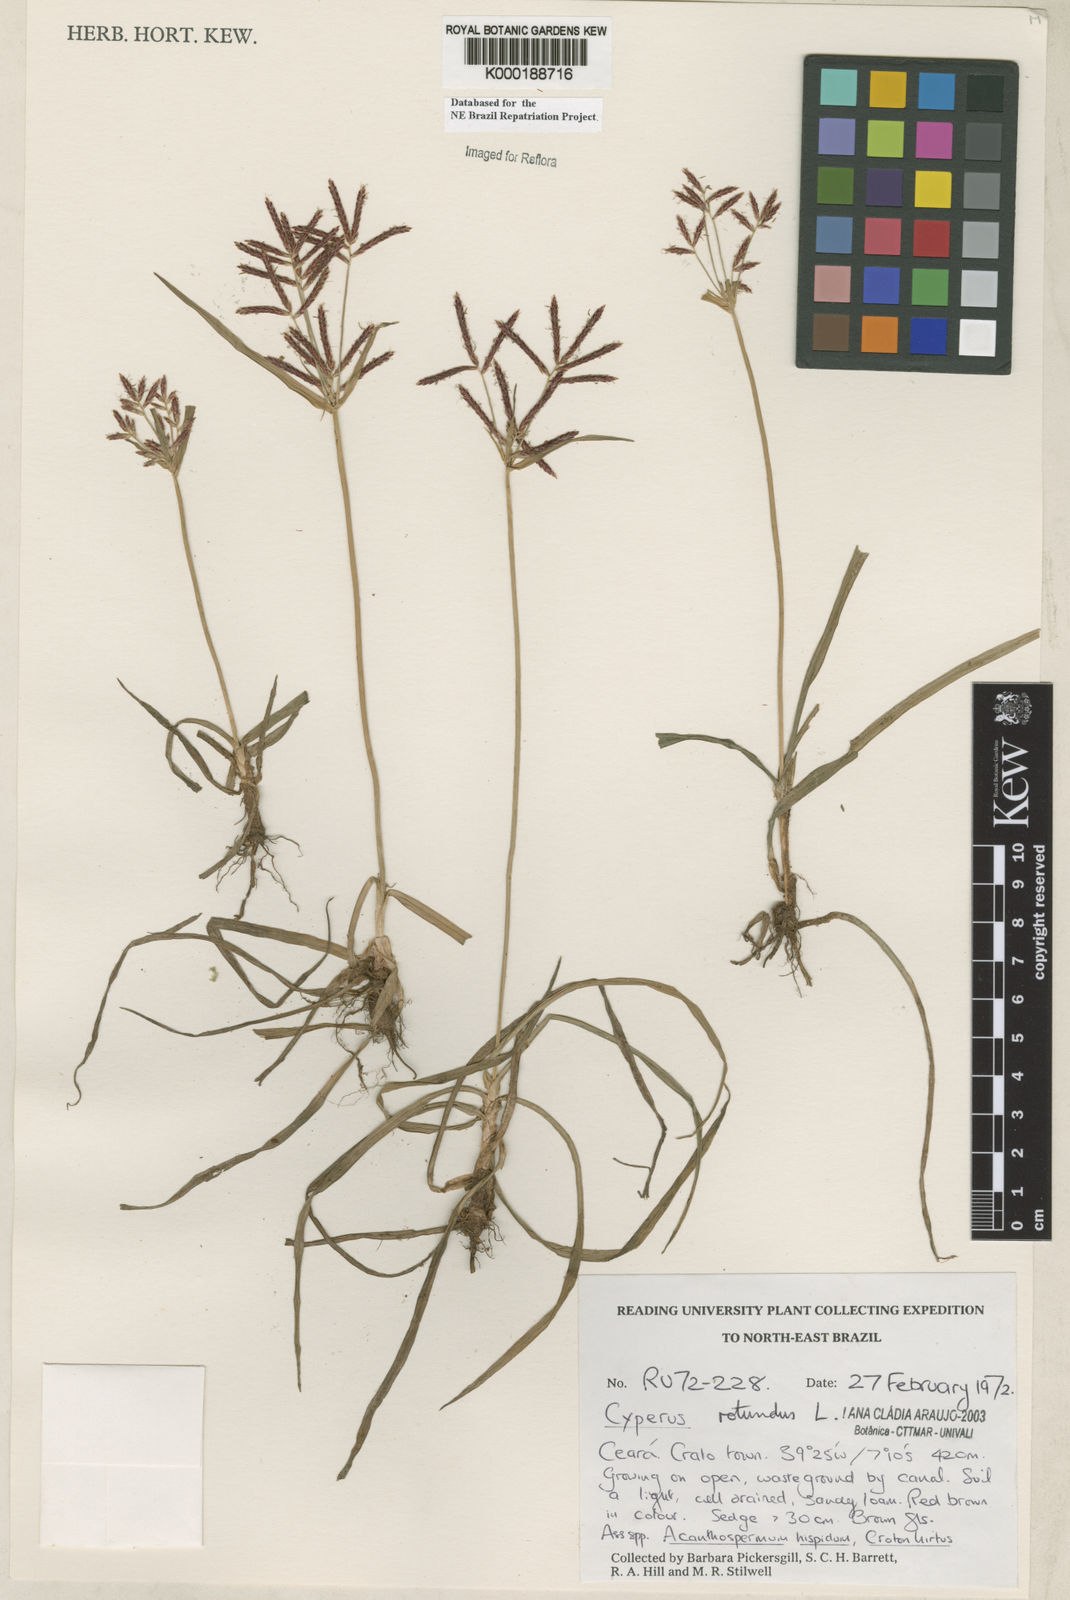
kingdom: Plantae
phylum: Tracheophyta
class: Liliopsida
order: Poales
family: Cyperaceae
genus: Cyperus
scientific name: Cyperus rotundus
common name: Nutgrass
